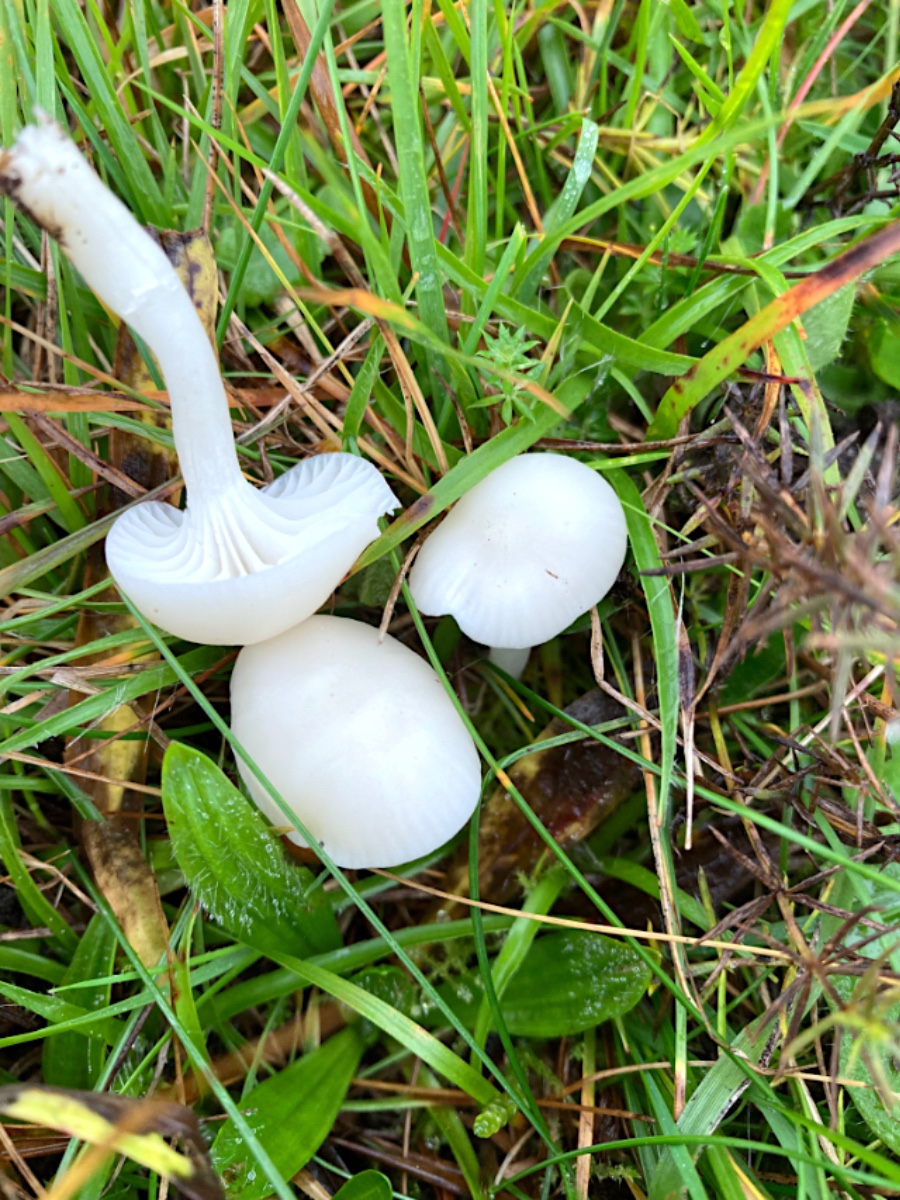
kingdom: Fungi
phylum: Basidiomycota
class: Agaricomycetes
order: Agaricales
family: Hygrophoraceae
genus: Cuphophyllus
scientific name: Cuphophyllus virgineus
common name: snehvid vokshat
